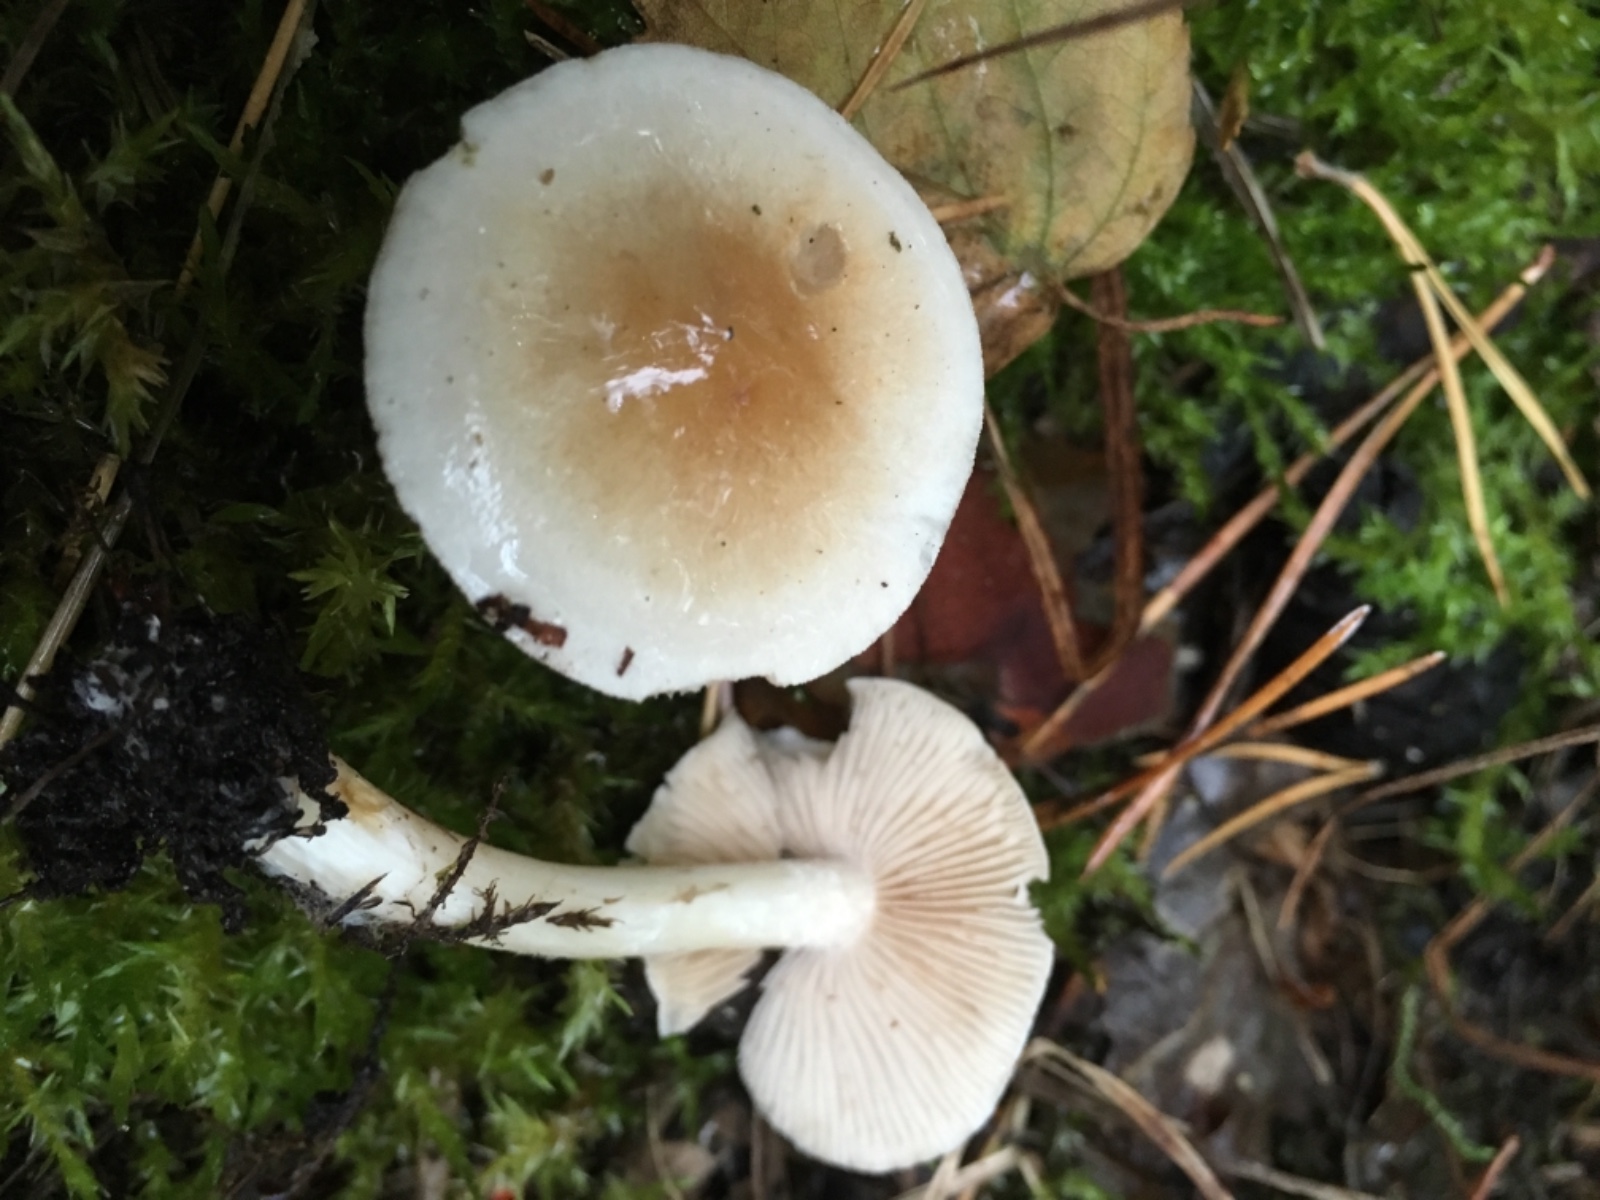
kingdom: Fungi
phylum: Basidiomycota
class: Agaricomycetes
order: Agaricales
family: Hymenogastraceae
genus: Hebeloma
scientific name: Hebeloma
